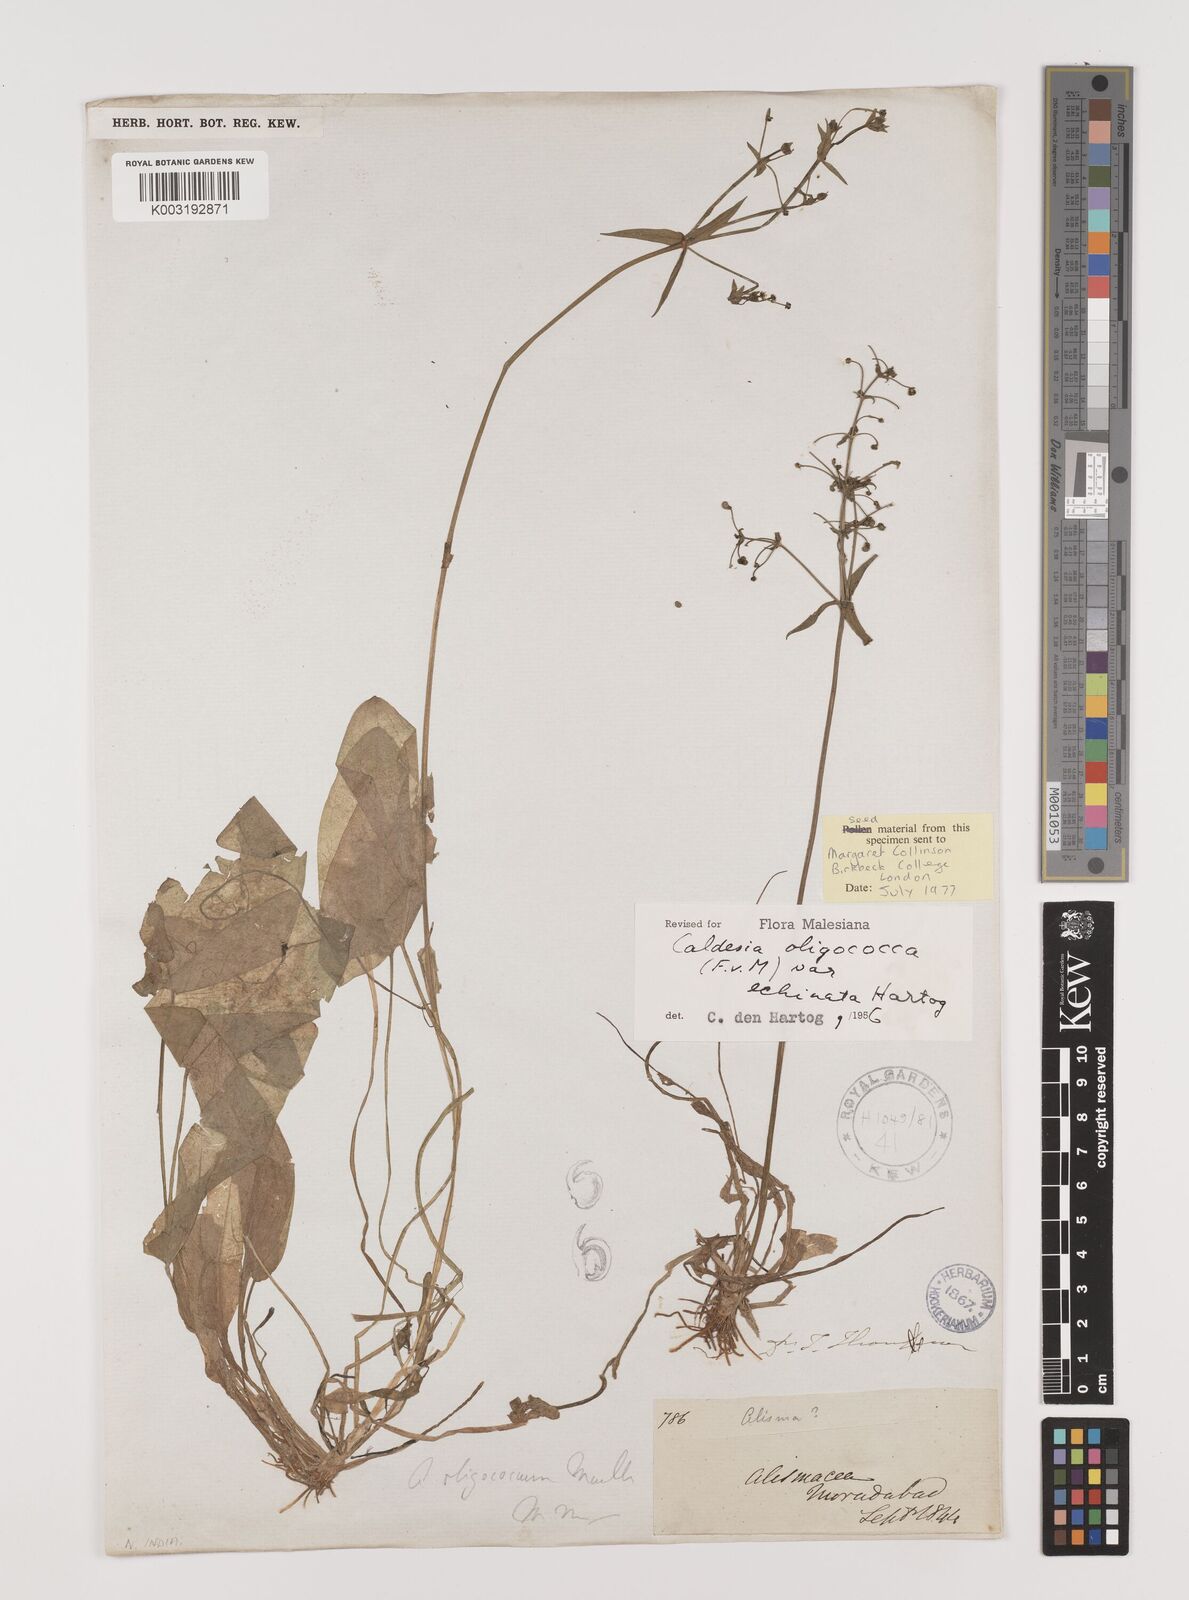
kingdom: Plantae
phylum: Tracheophyta
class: Liliopsida
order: Alismatales
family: Alismataceae
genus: Albidella
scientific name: Albidella oligococca
